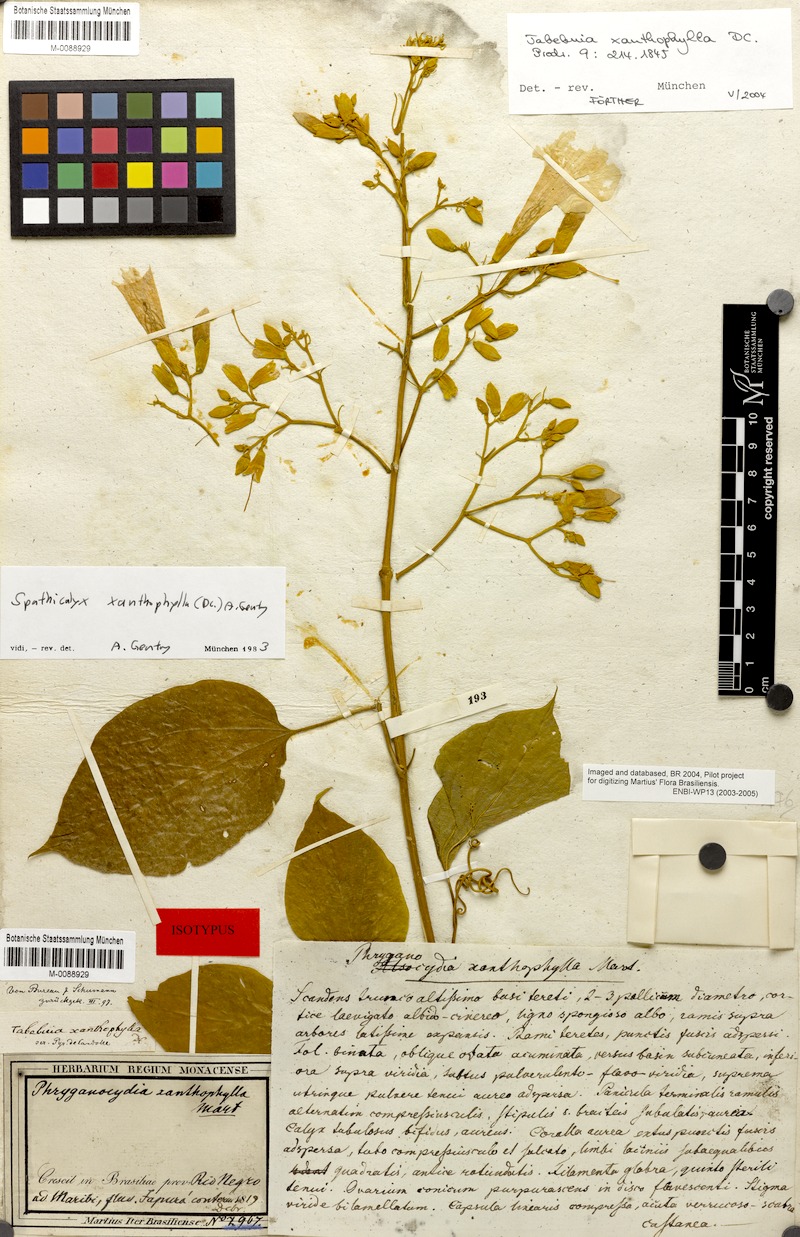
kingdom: Plantae
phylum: Tracheophyta
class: Magnoliopsida
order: Lamiales
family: Bignoniaceae
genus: Tanaecium
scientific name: Tanaecium xanthophyllum
